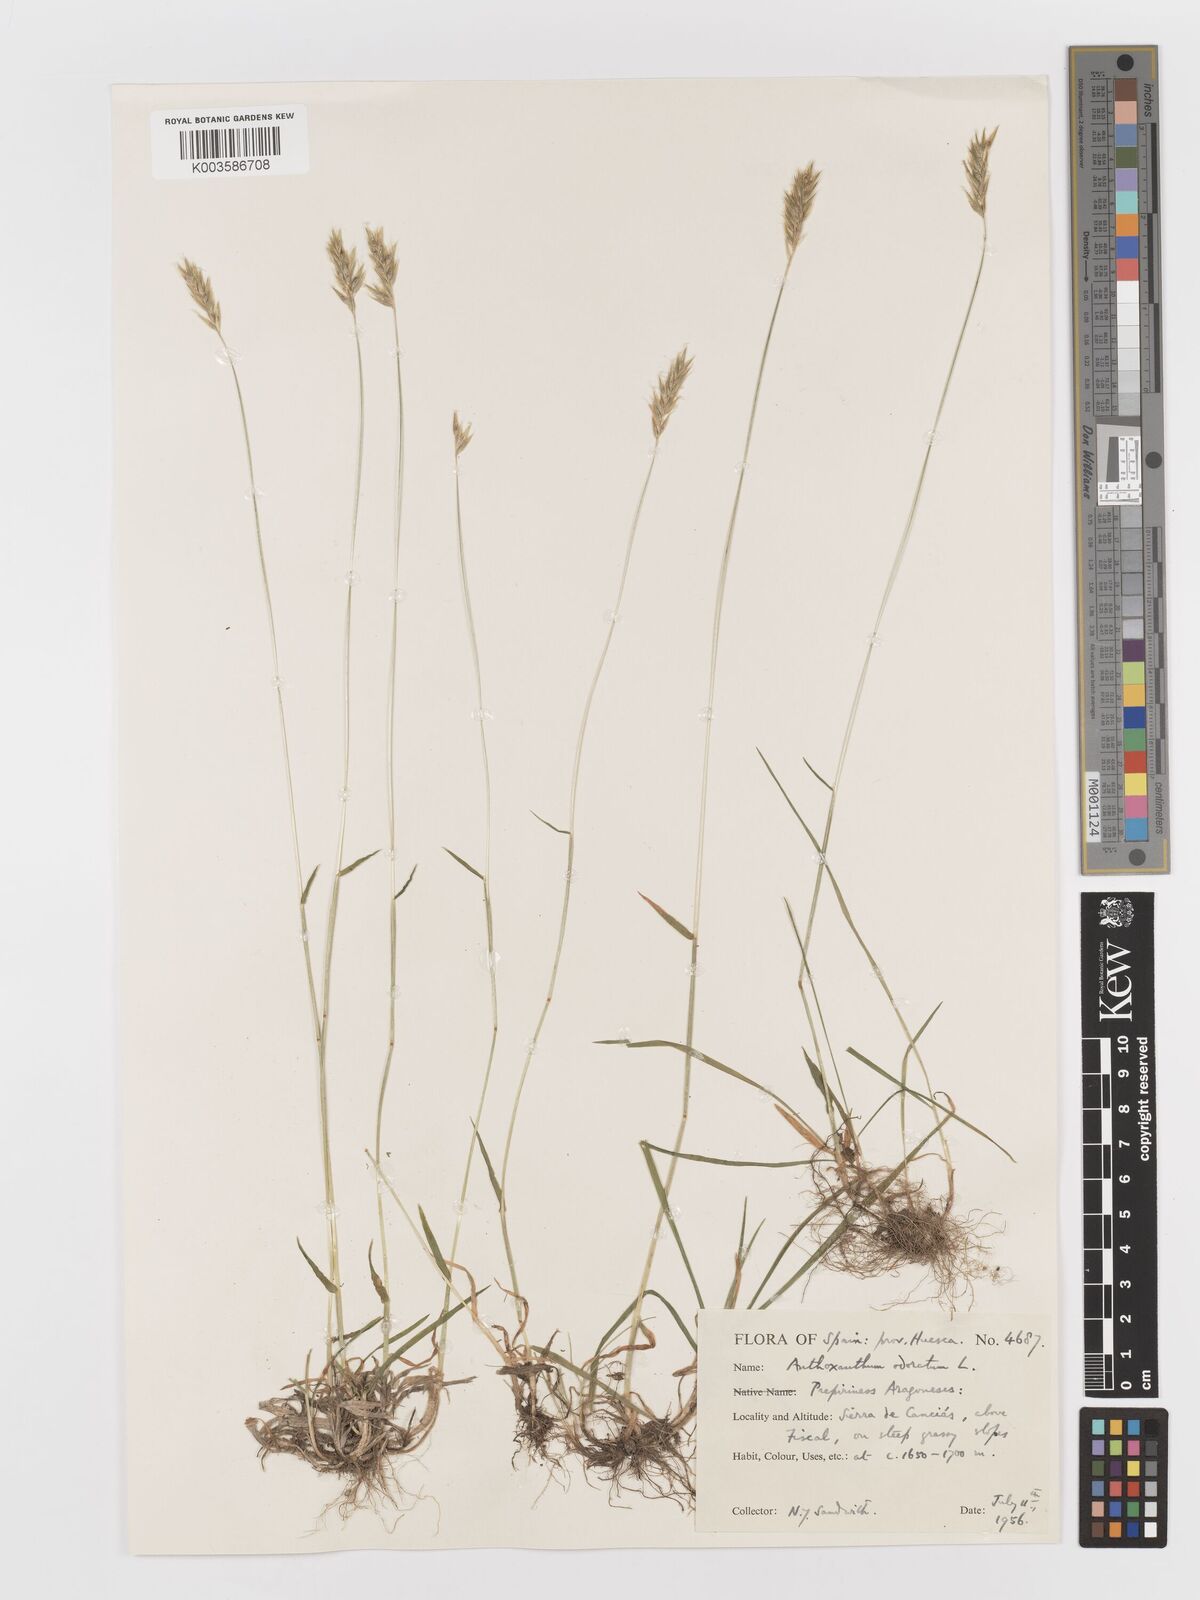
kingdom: Plantae
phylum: Tracheophyta
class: Liliopsida
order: Poales
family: Poaceae
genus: Anthoxanthum
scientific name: Anthoxanthum odoratum
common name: Sweet vernalgrass
